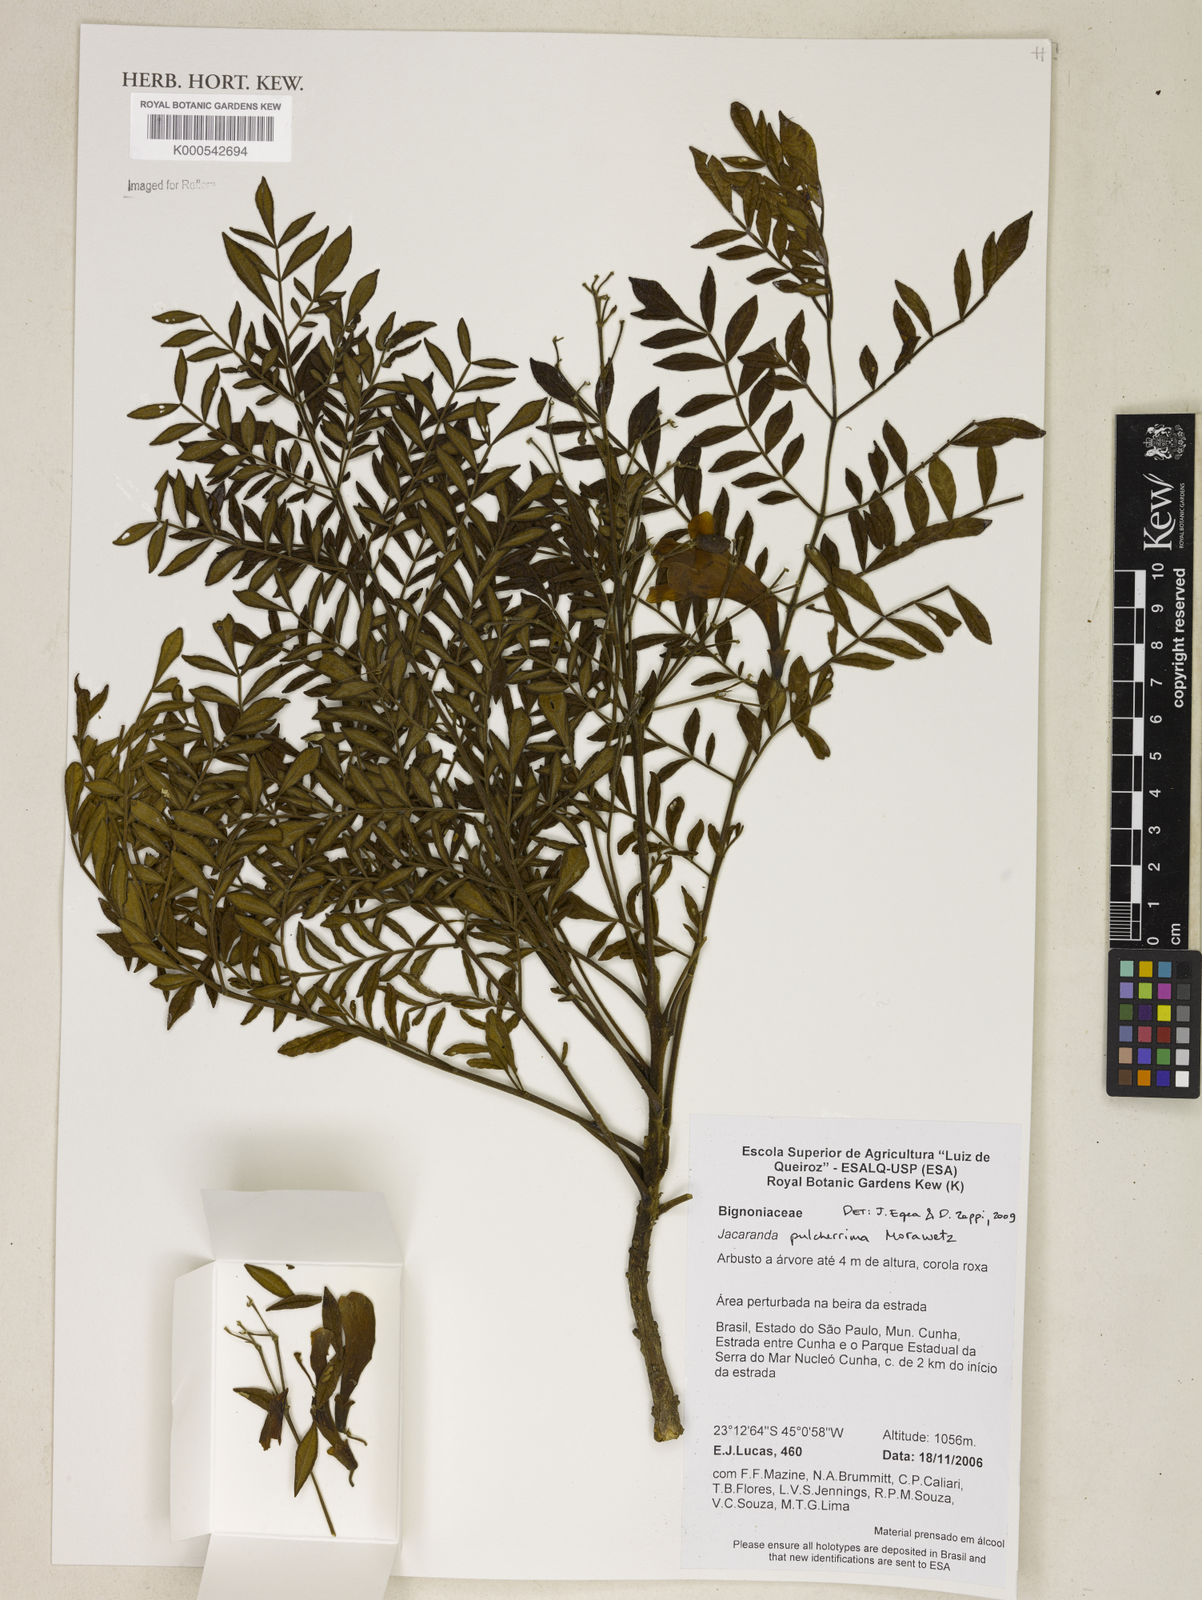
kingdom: Plantae
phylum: Tracheophyta
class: Magnoliopsida
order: Lamiales
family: Bignoniaceae
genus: Jacaranda
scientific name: Jacaranda pulcherrima
